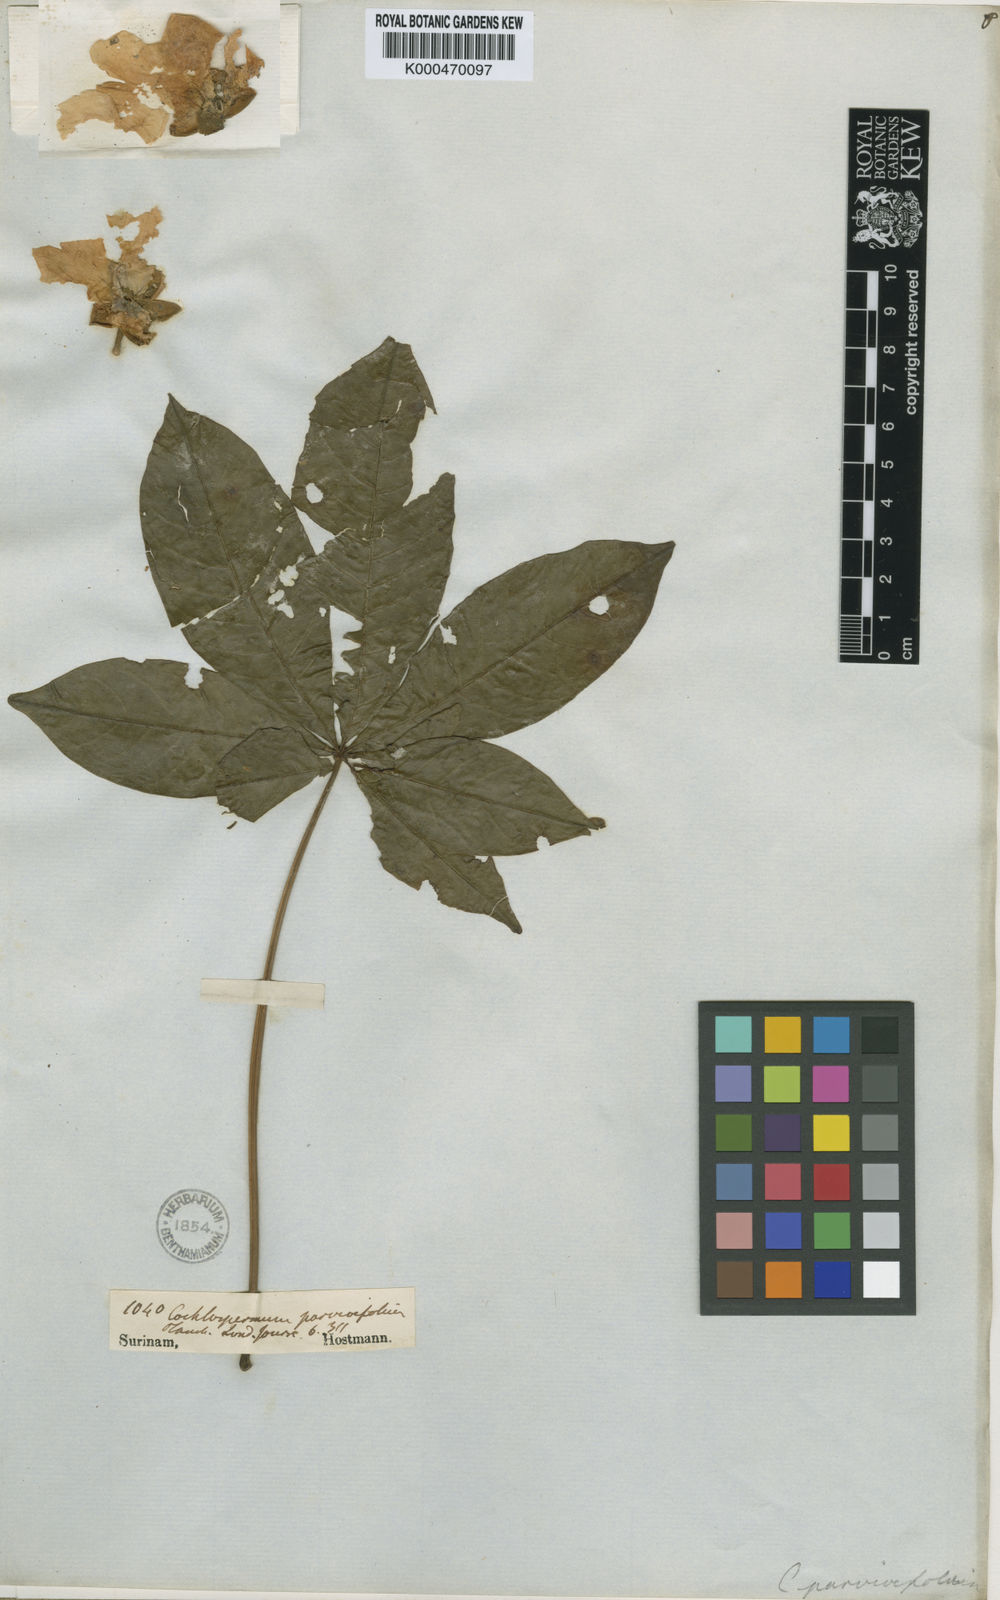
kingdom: Plantae
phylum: Tracheophyta
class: Magnoliopsida
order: Malvales
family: Cochlospermaceae
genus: Cochlospermum
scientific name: Cochlospermum orinocense
